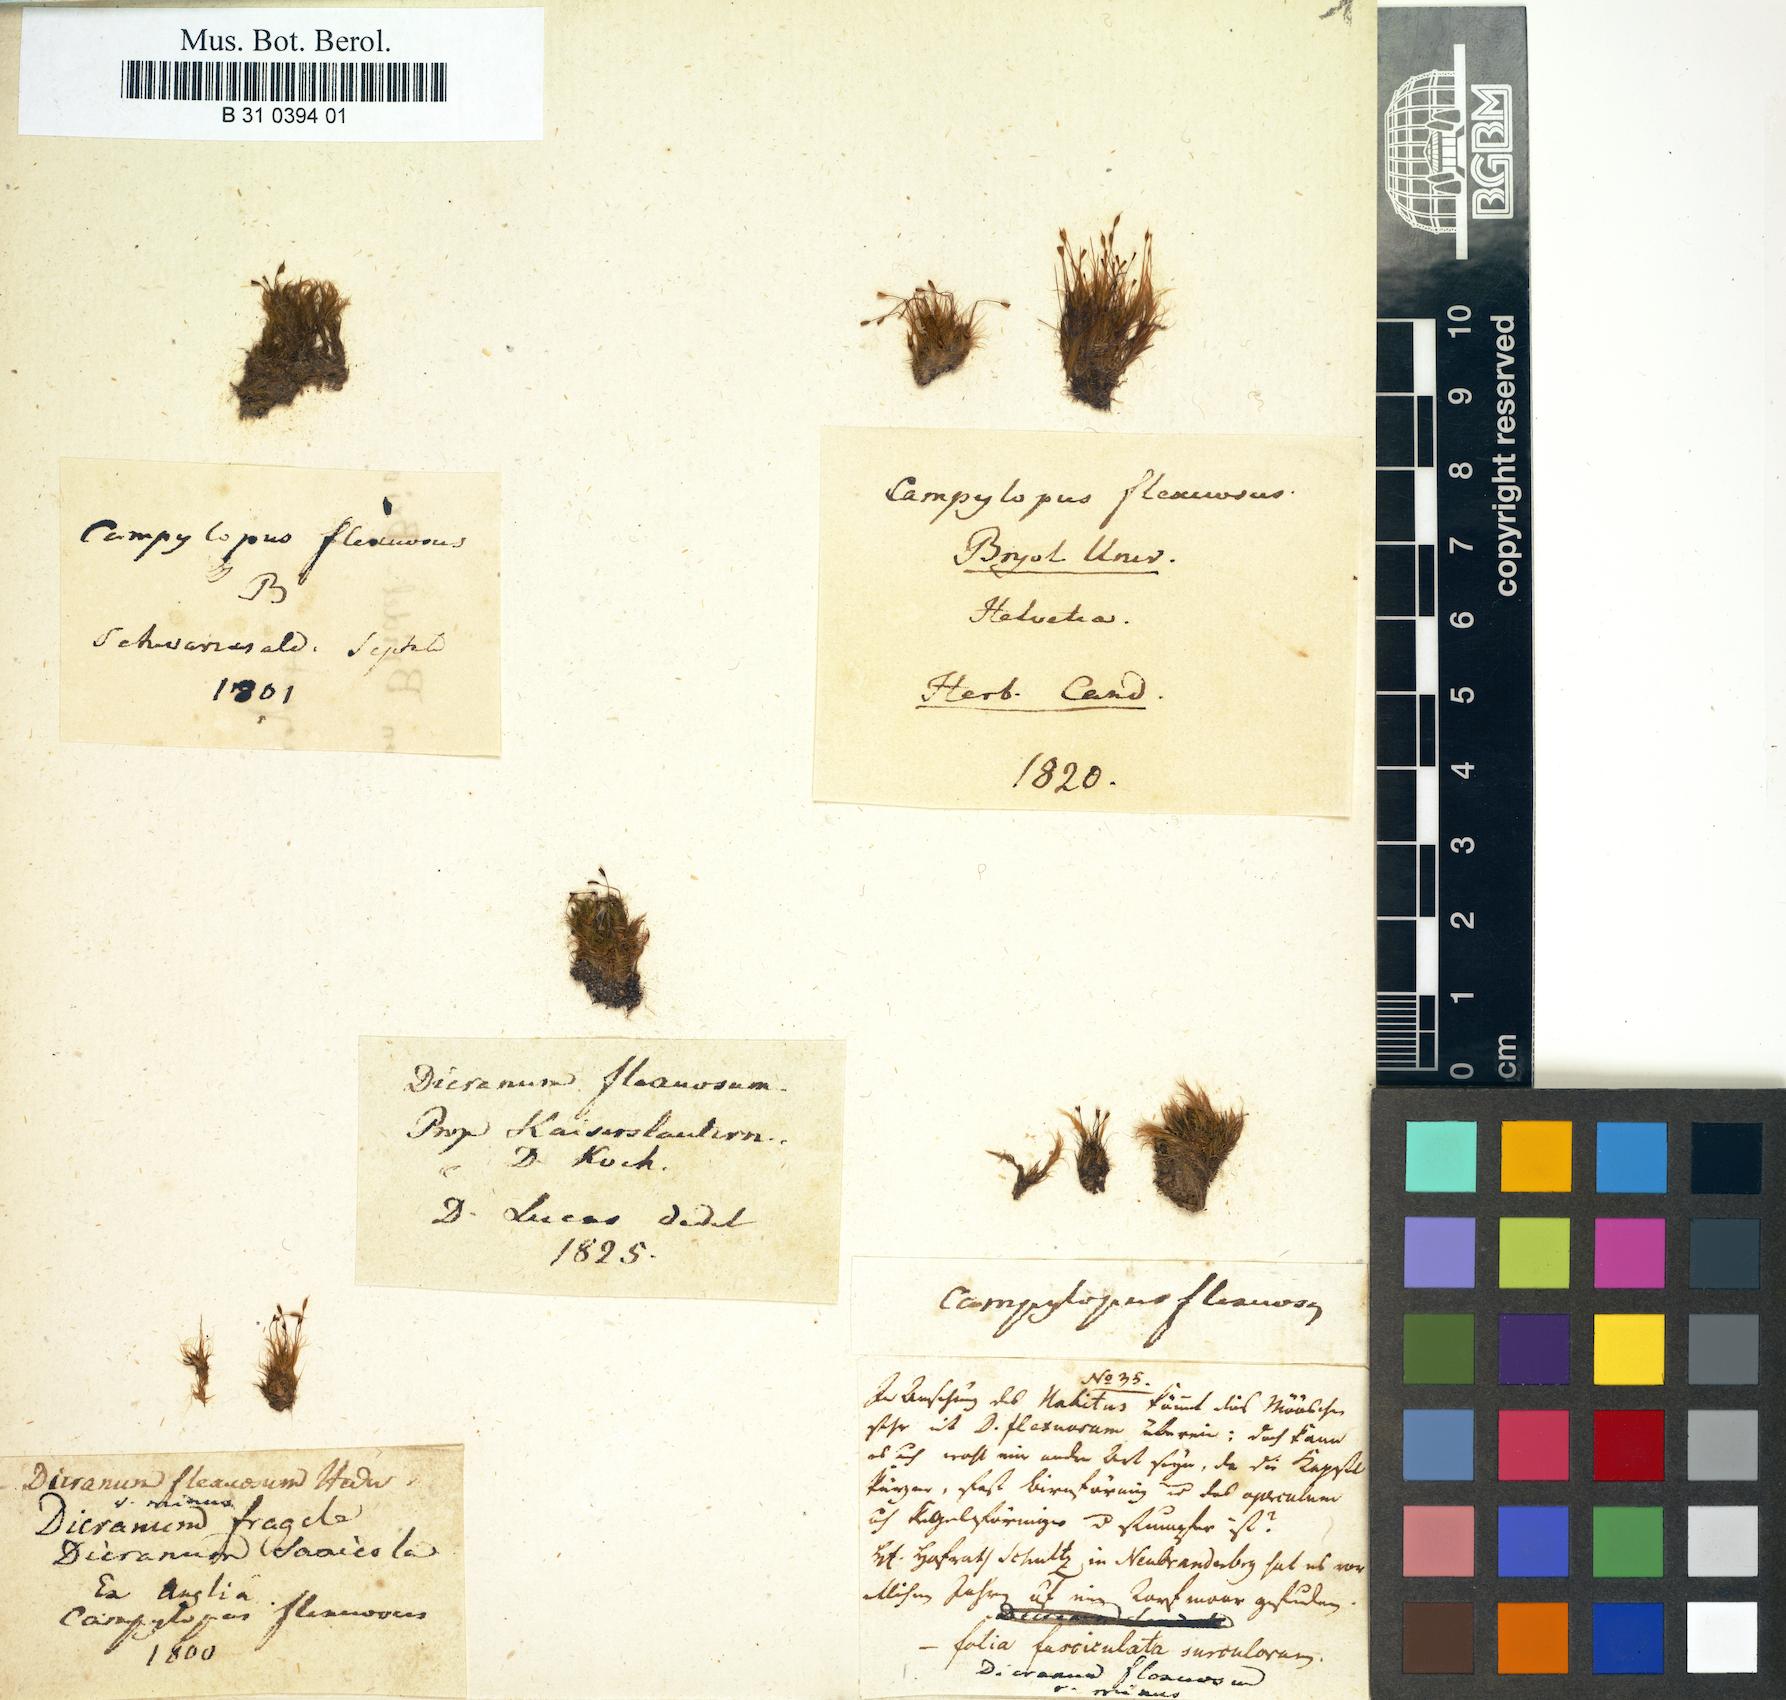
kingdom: Plantae
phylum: Bryophyta
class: Bryopsida
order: Dicranales
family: Leucobryaceae
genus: Campylopus
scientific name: Campylopus flexuosus
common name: Rusty swan-neck moss
